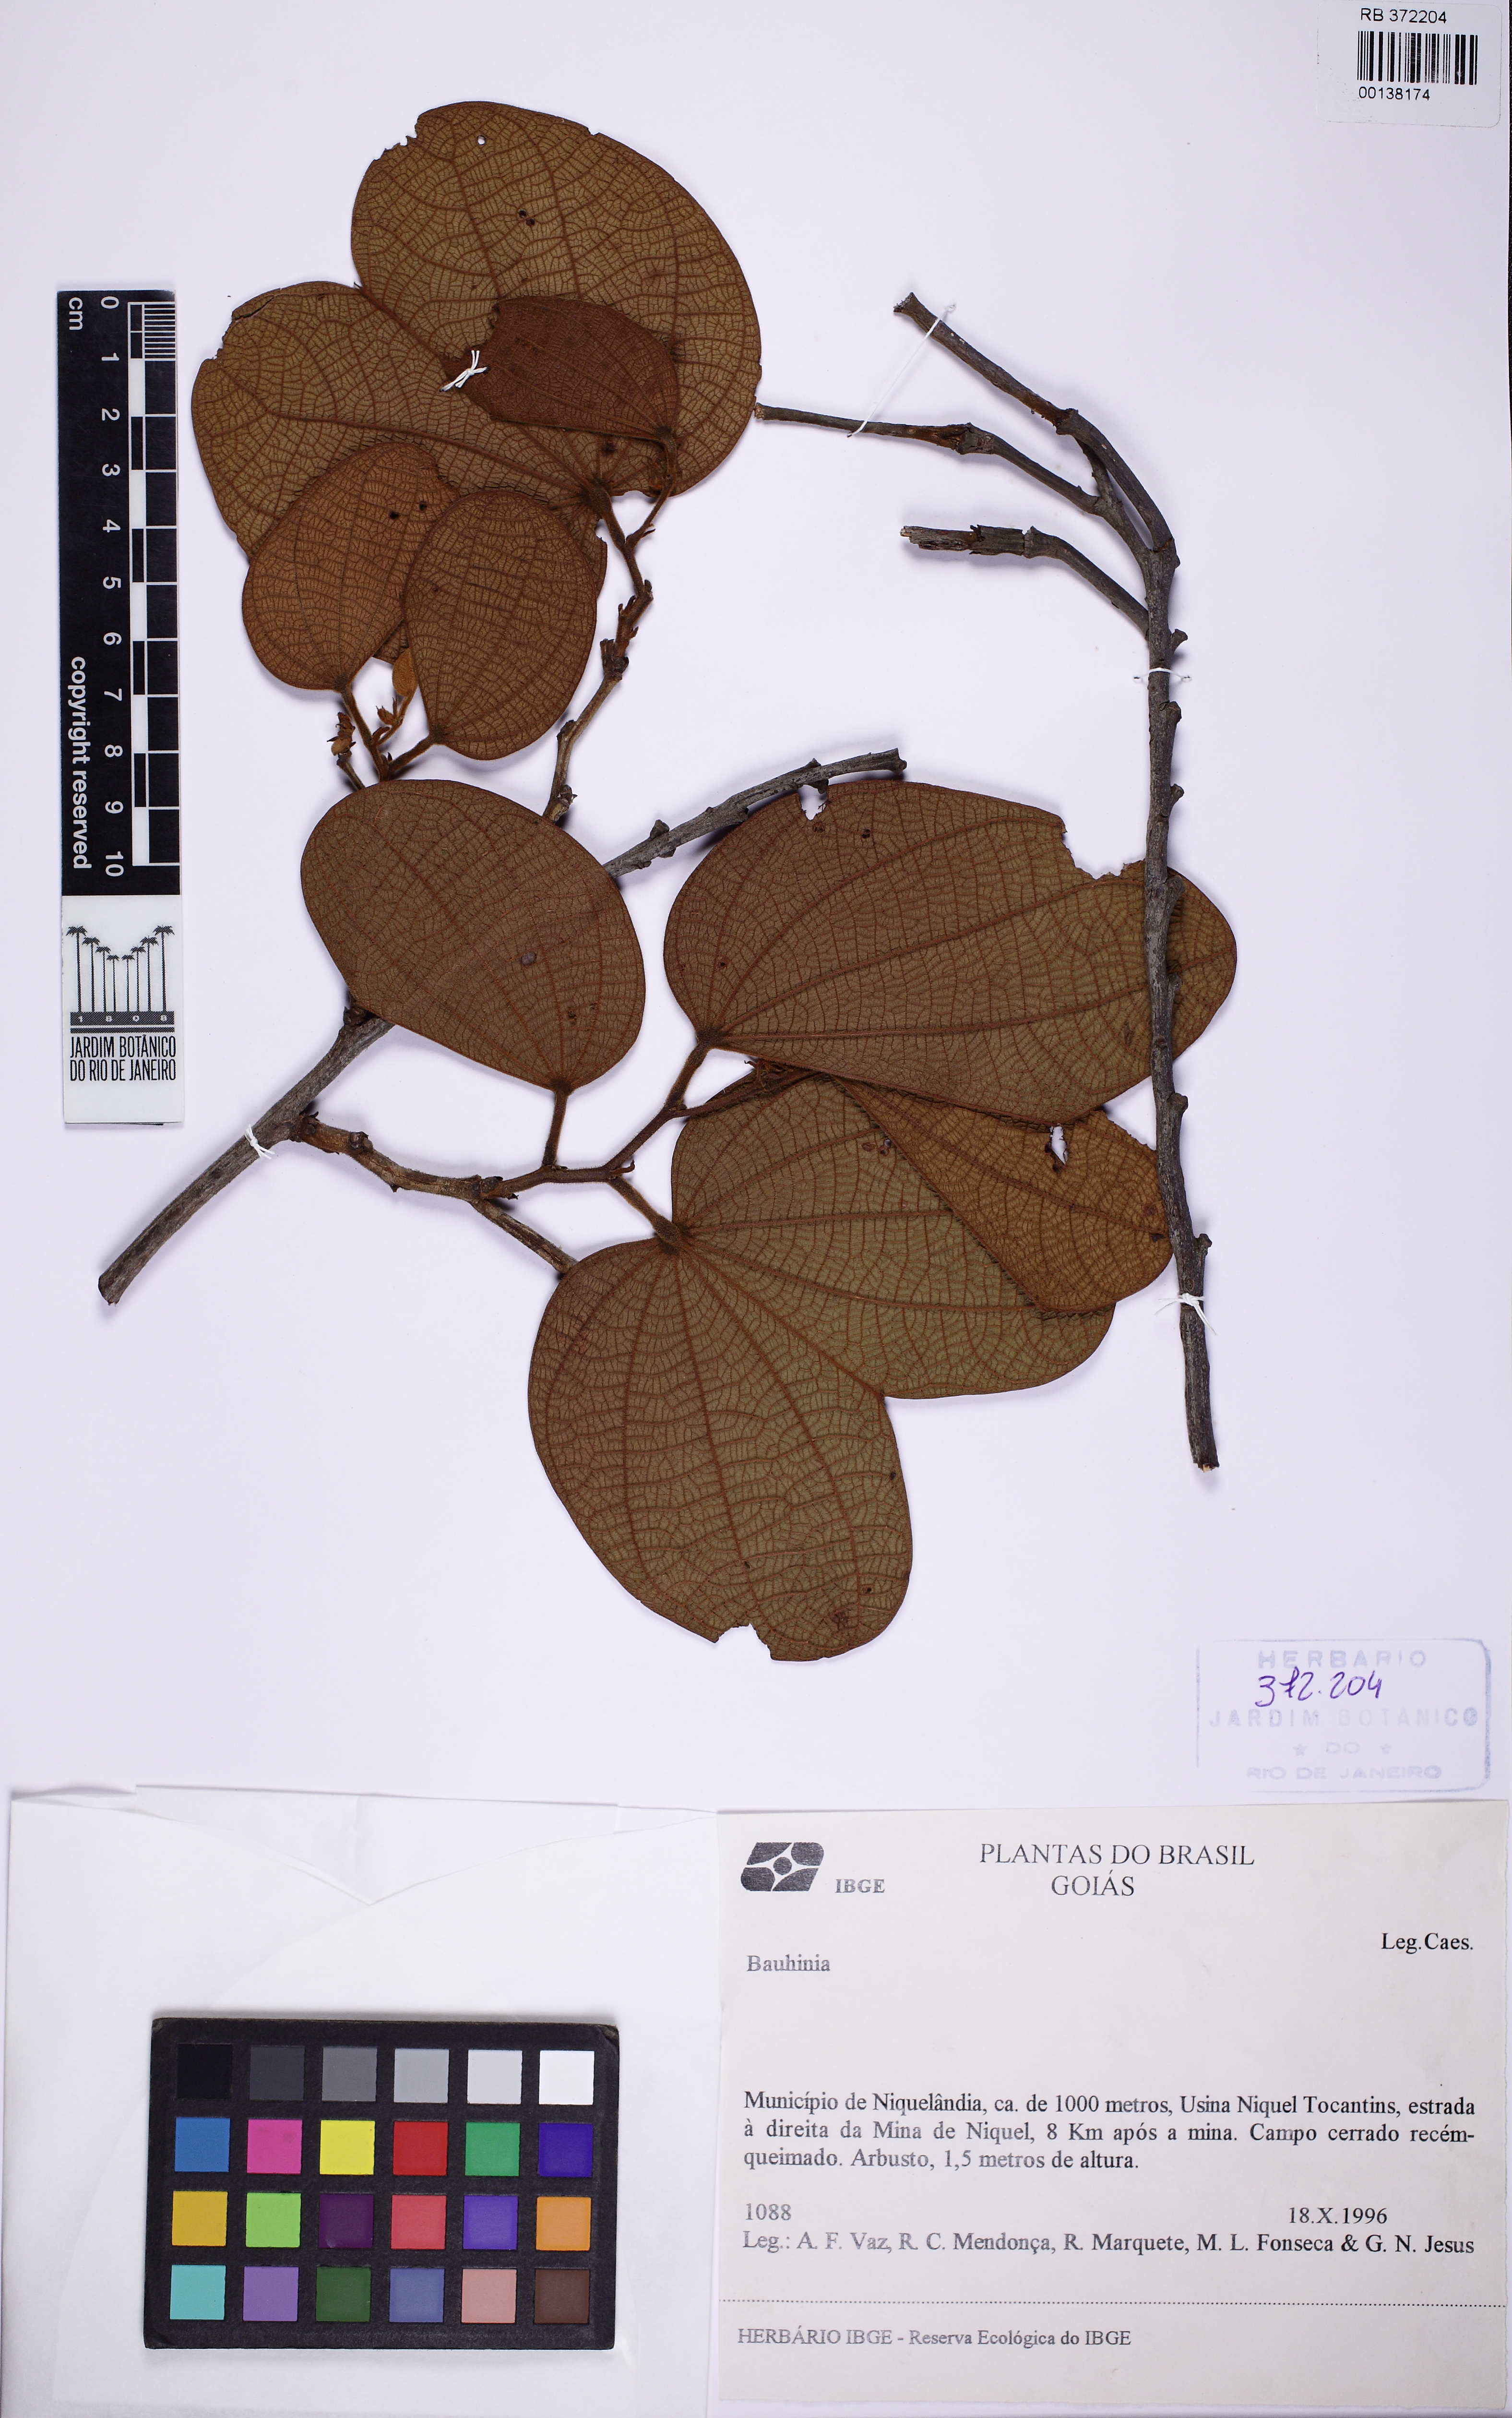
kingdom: Plantae
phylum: Tracheophyta
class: Magnoliopsida
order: Fabales
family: Fabaceae
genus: Bauhinia
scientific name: Bauhinia
